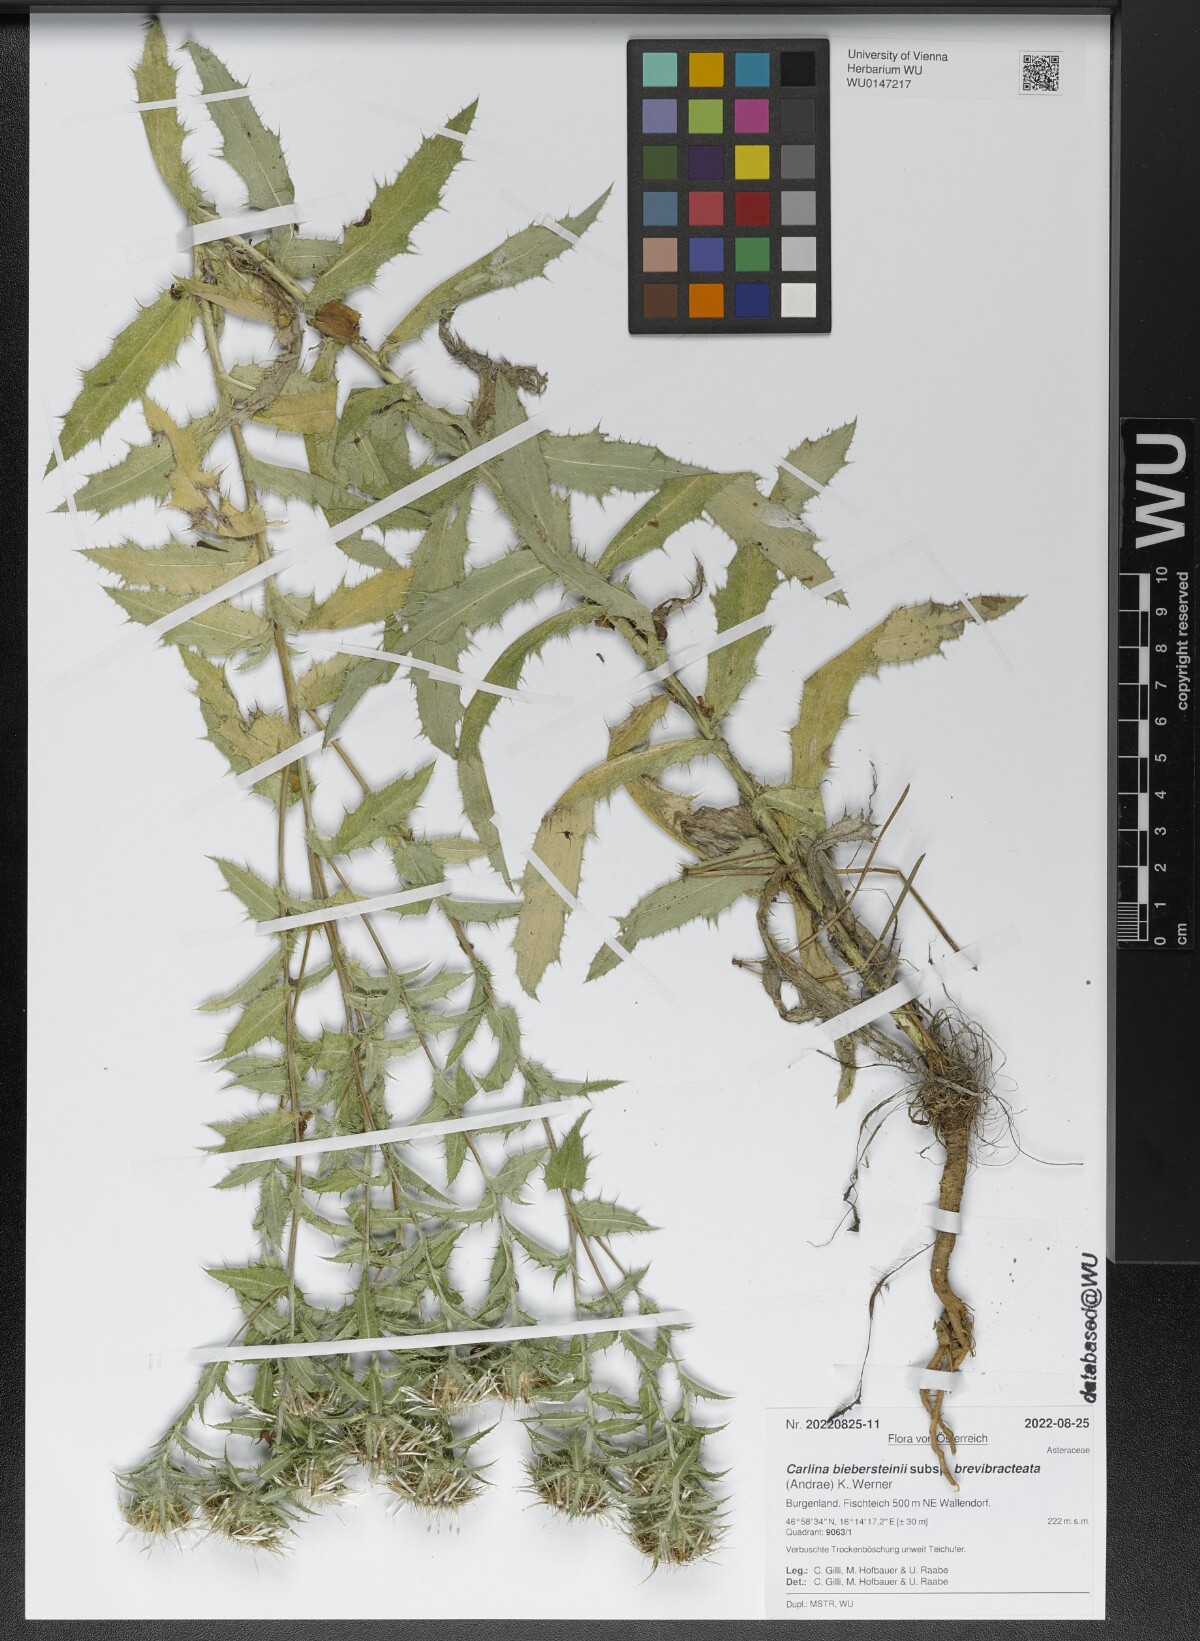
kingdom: Plantae
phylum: Tracheophyta
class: Magnoliopsida
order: Asterales
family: Asteraceae
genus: Carlina
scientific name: Carlina biebersteinii
